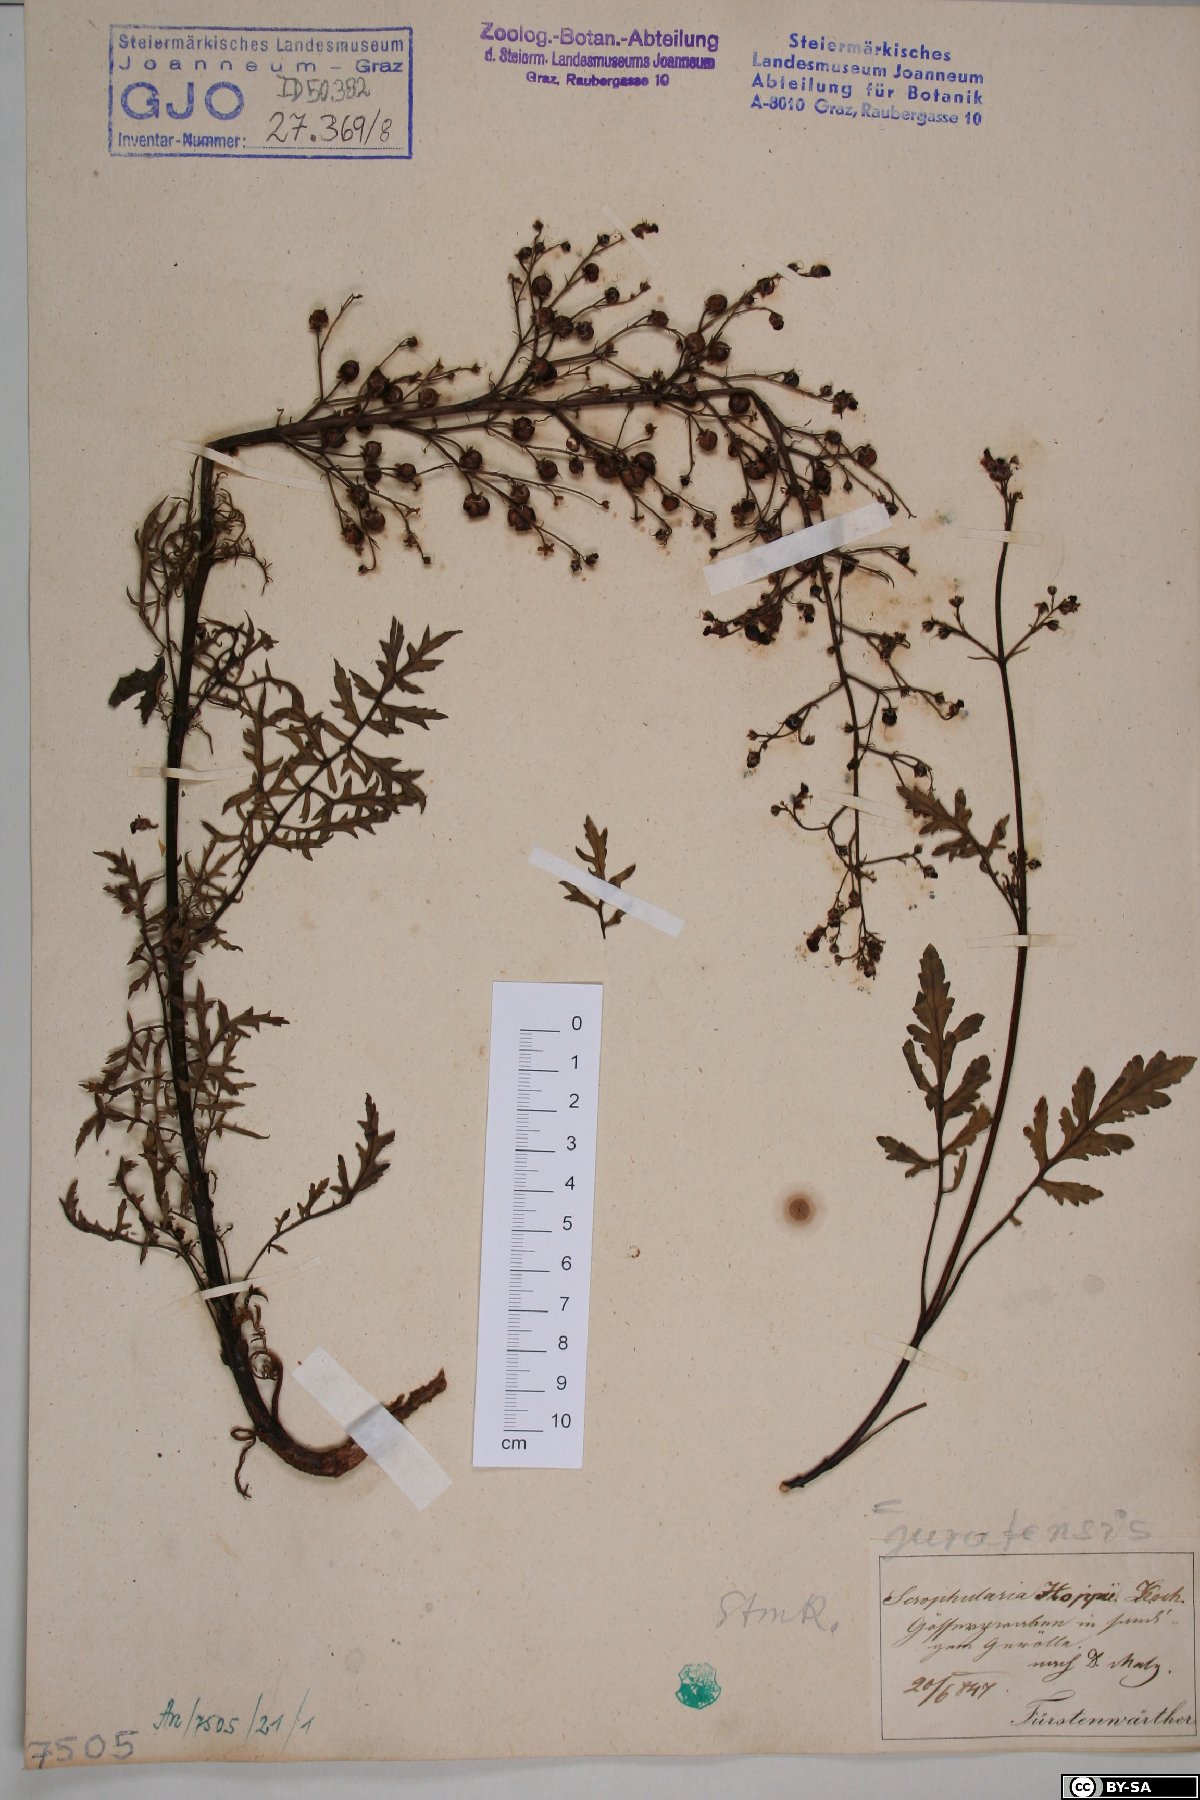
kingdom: Plantae
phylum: Tracheophyta
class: Magnoliopsida
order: Lamiales
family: Scrophulariaceae
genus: Scrophularia
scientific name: Scrophularia canina
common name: French figwort
